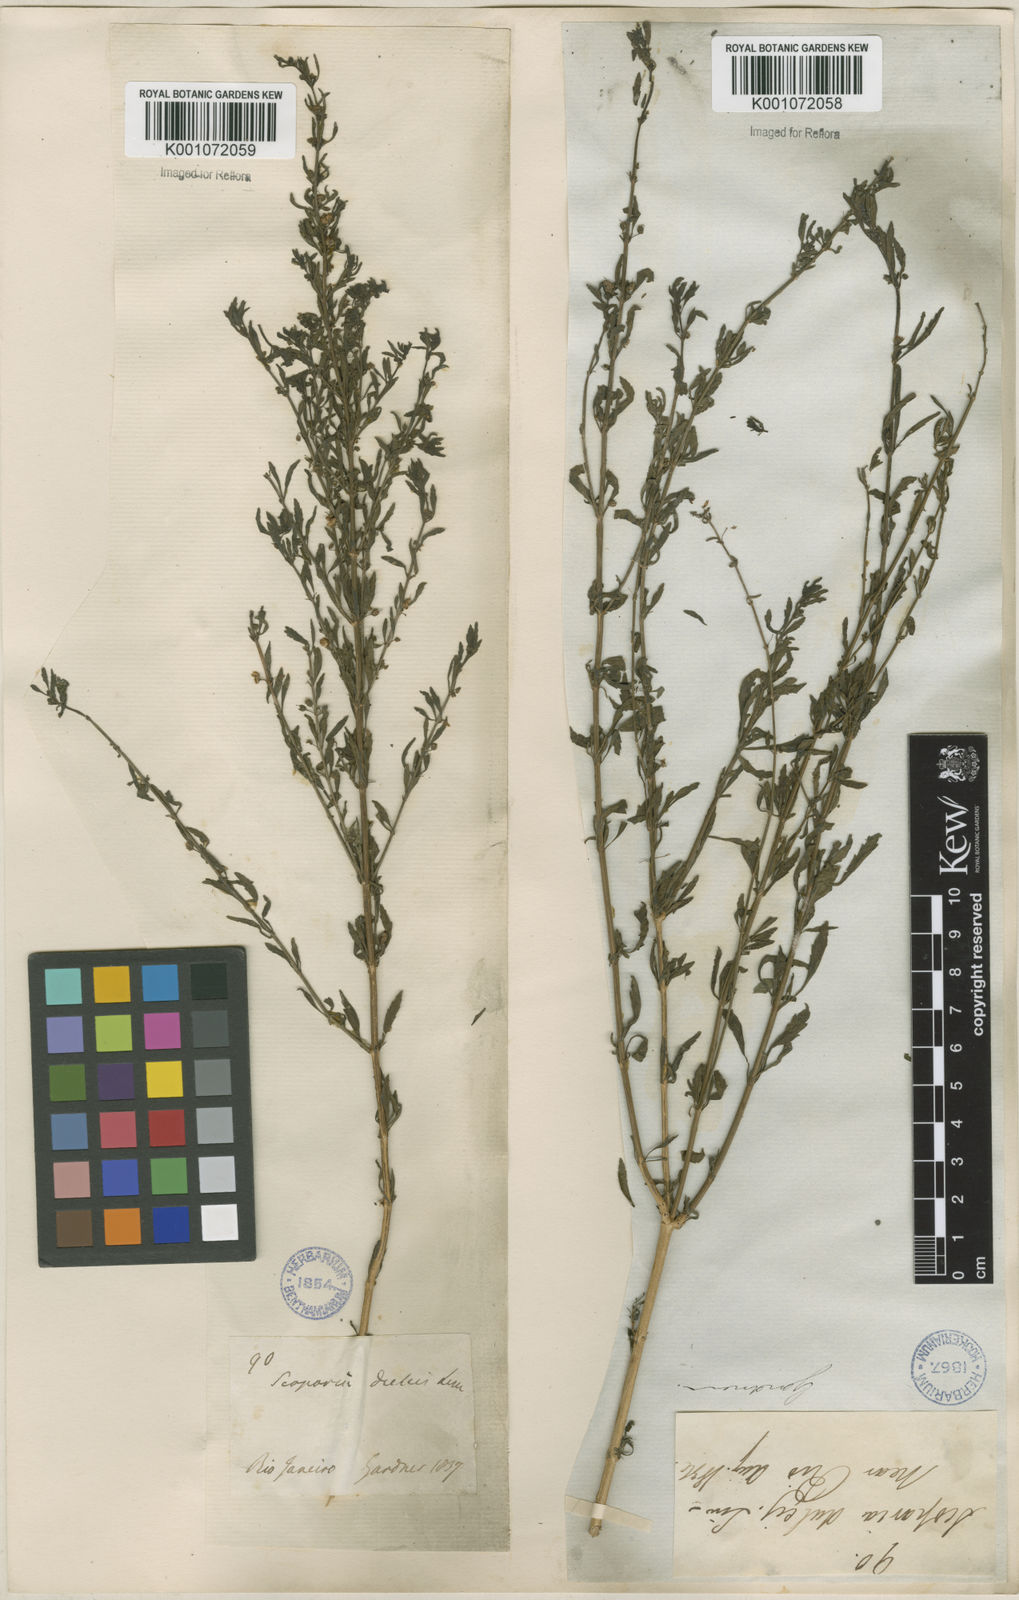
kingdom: Plantae
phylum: Tracheophyta
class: Magnoliopsida
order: Lamiales
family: Plantaginaceae
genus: Scoparia
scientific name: Scoparia dulcis
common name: Scoparia-weed
